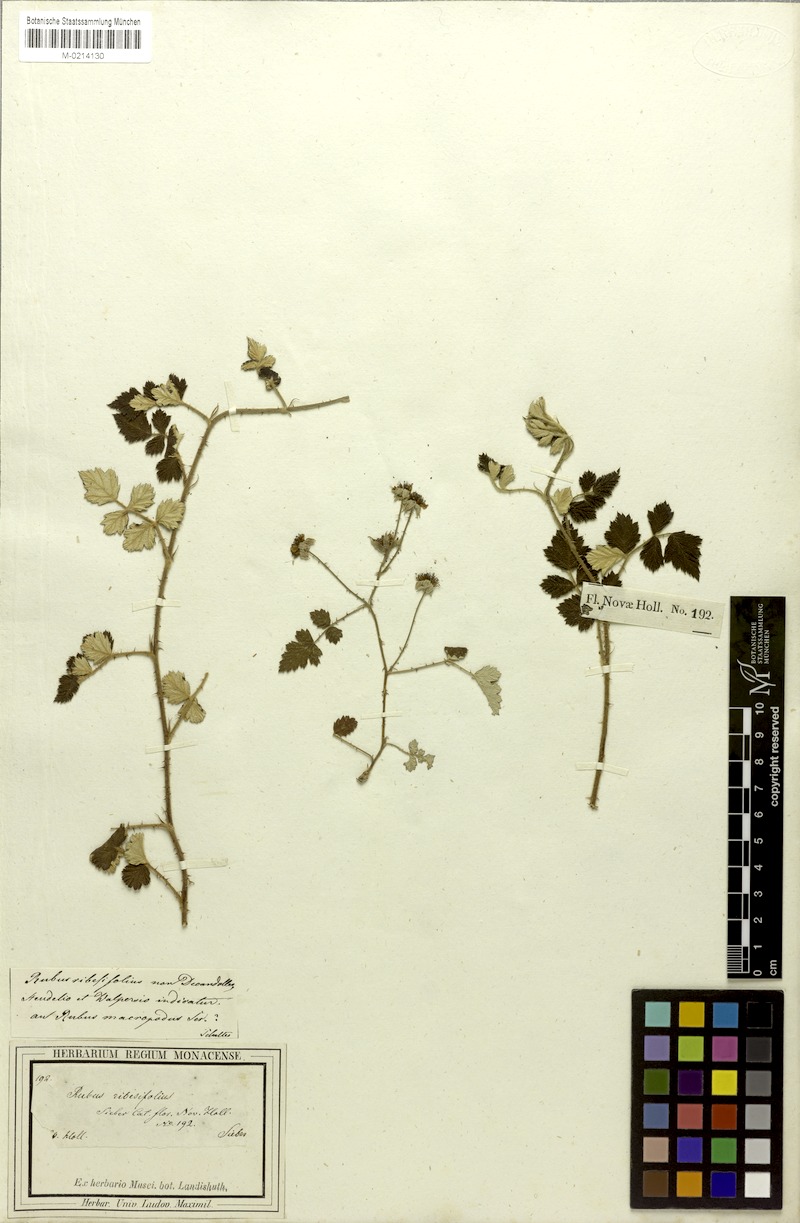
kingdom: Plantae
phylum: Tracheophyta
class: Magnoliopsida
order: Rosales
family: Rosaceae
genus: Rubus
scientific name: Rubus parvifolius
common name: Threeleaf blackberry
